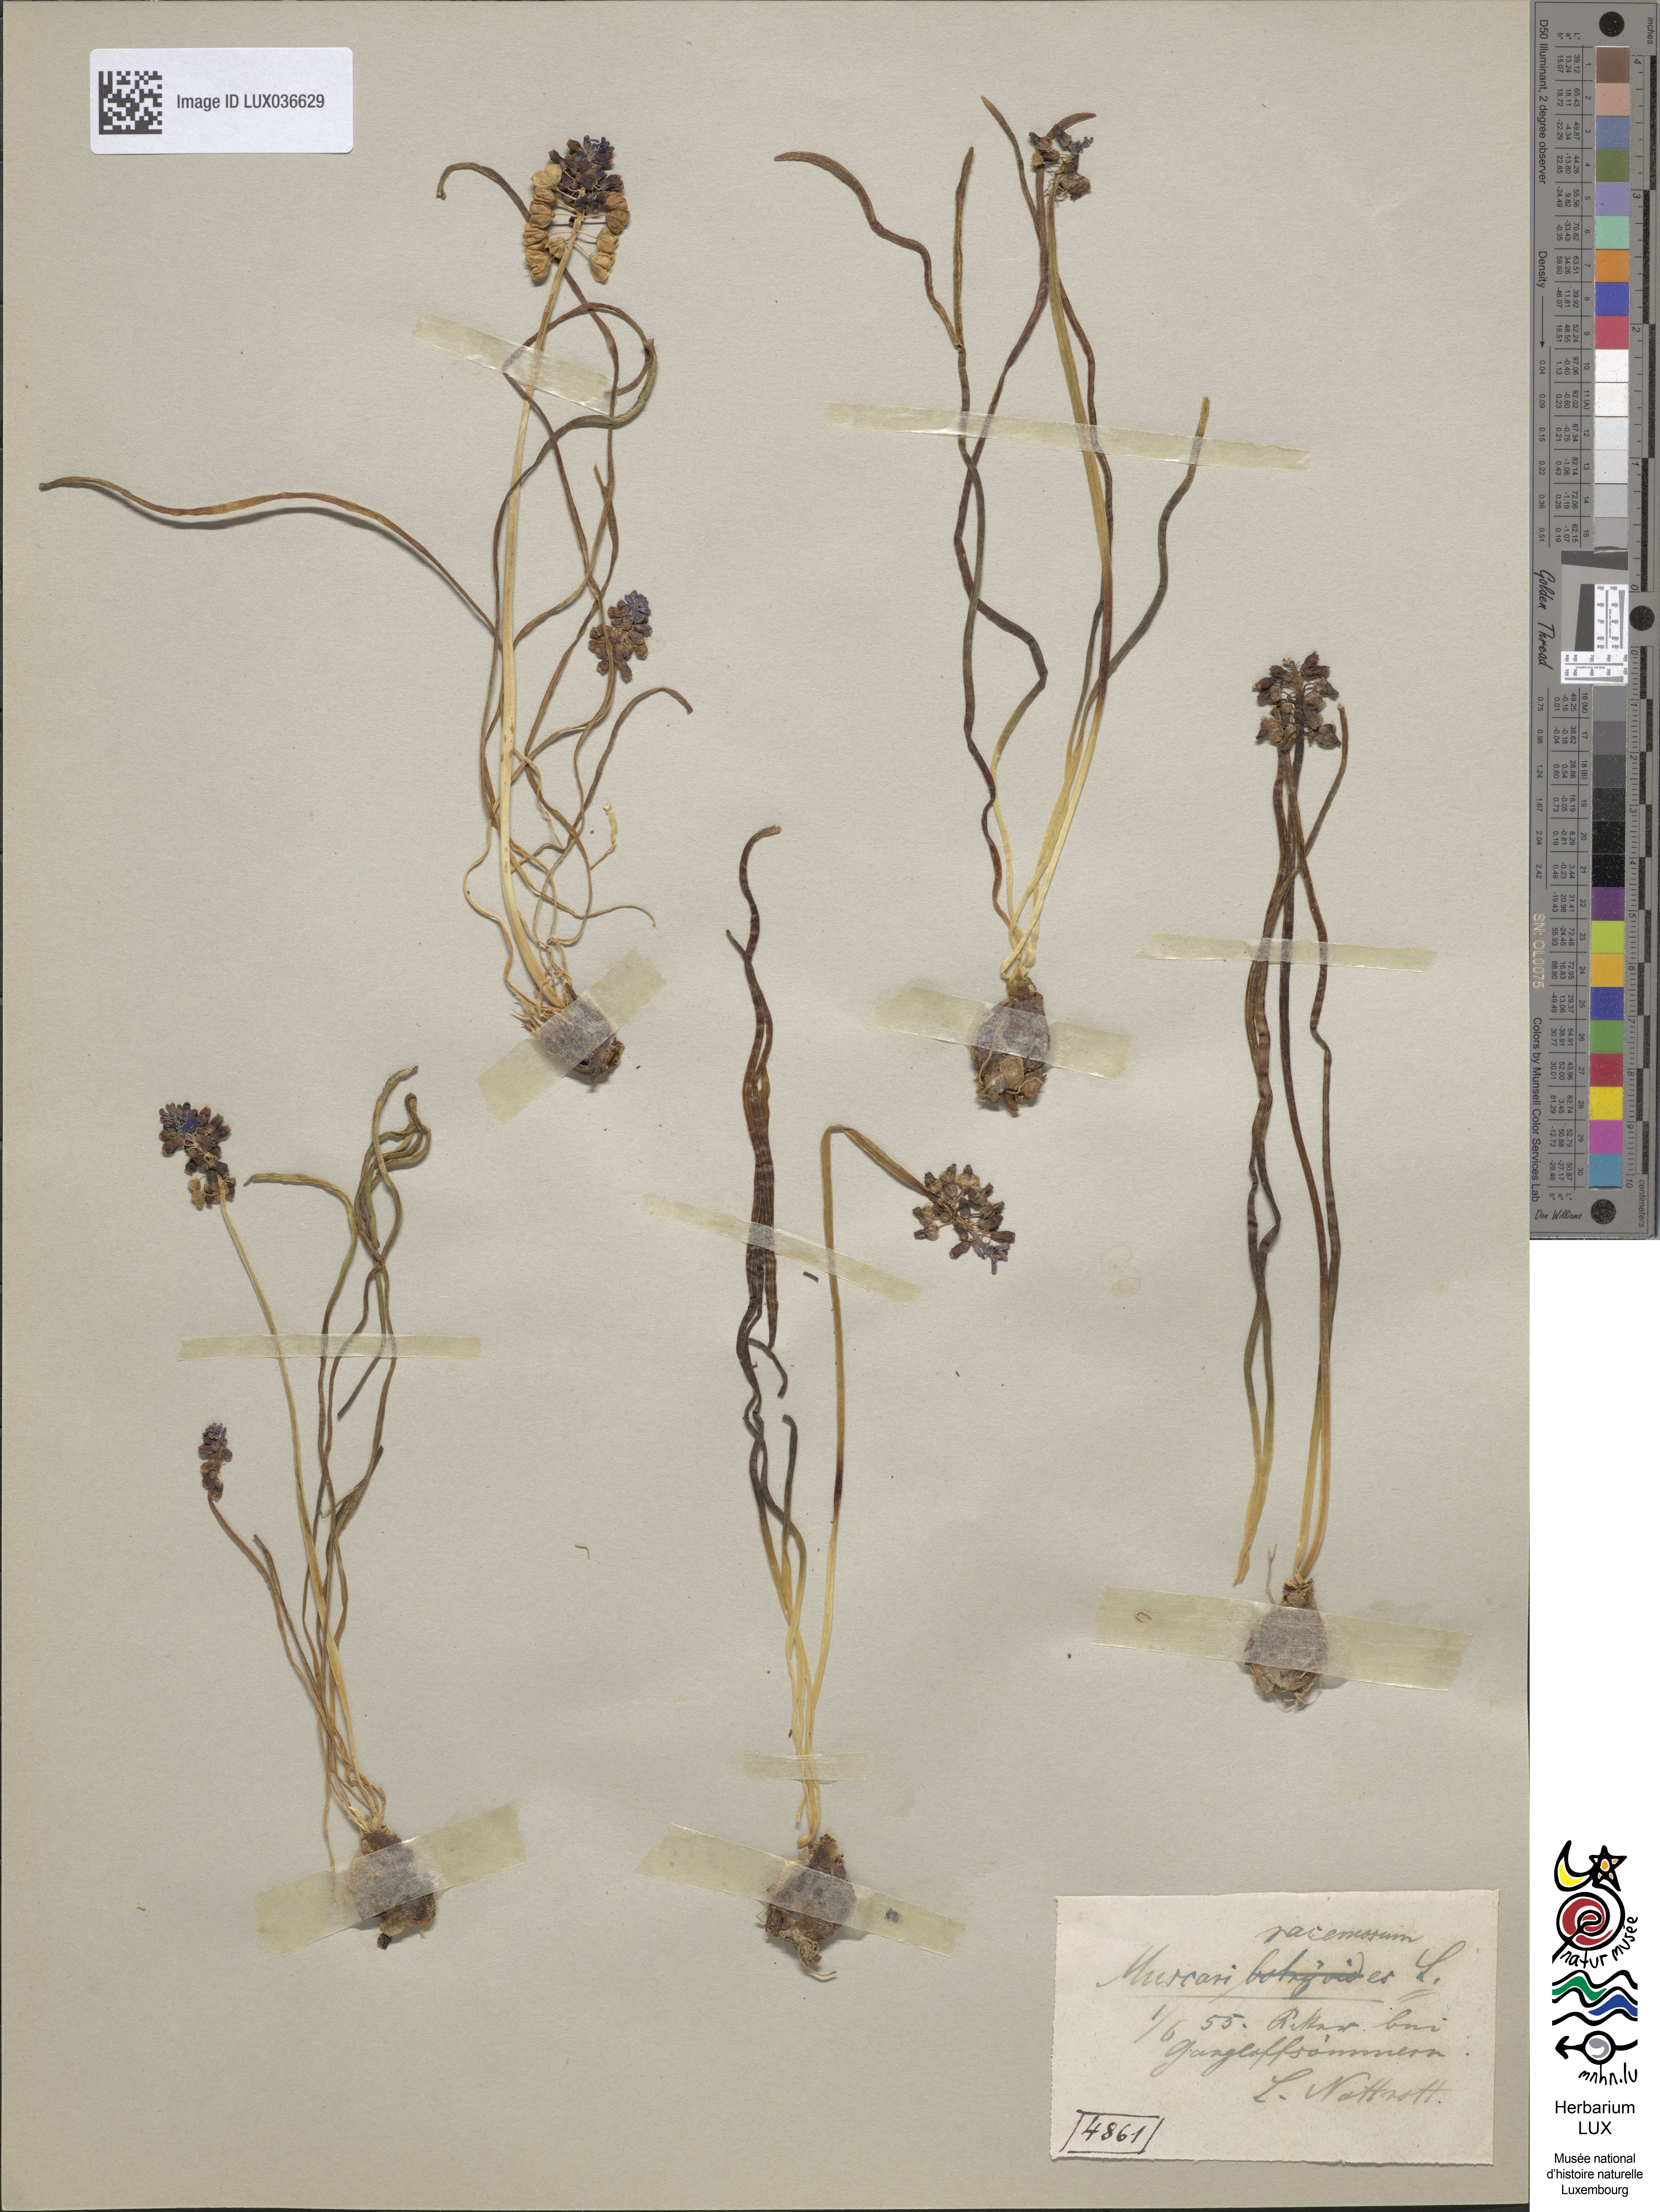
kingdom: Plantae
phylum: Tracheophyta
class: Liliopsida
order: Asparagales
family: Asparagaceae
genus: Muscari
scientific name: Muscari neglectum
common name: Grape-hyacinth
